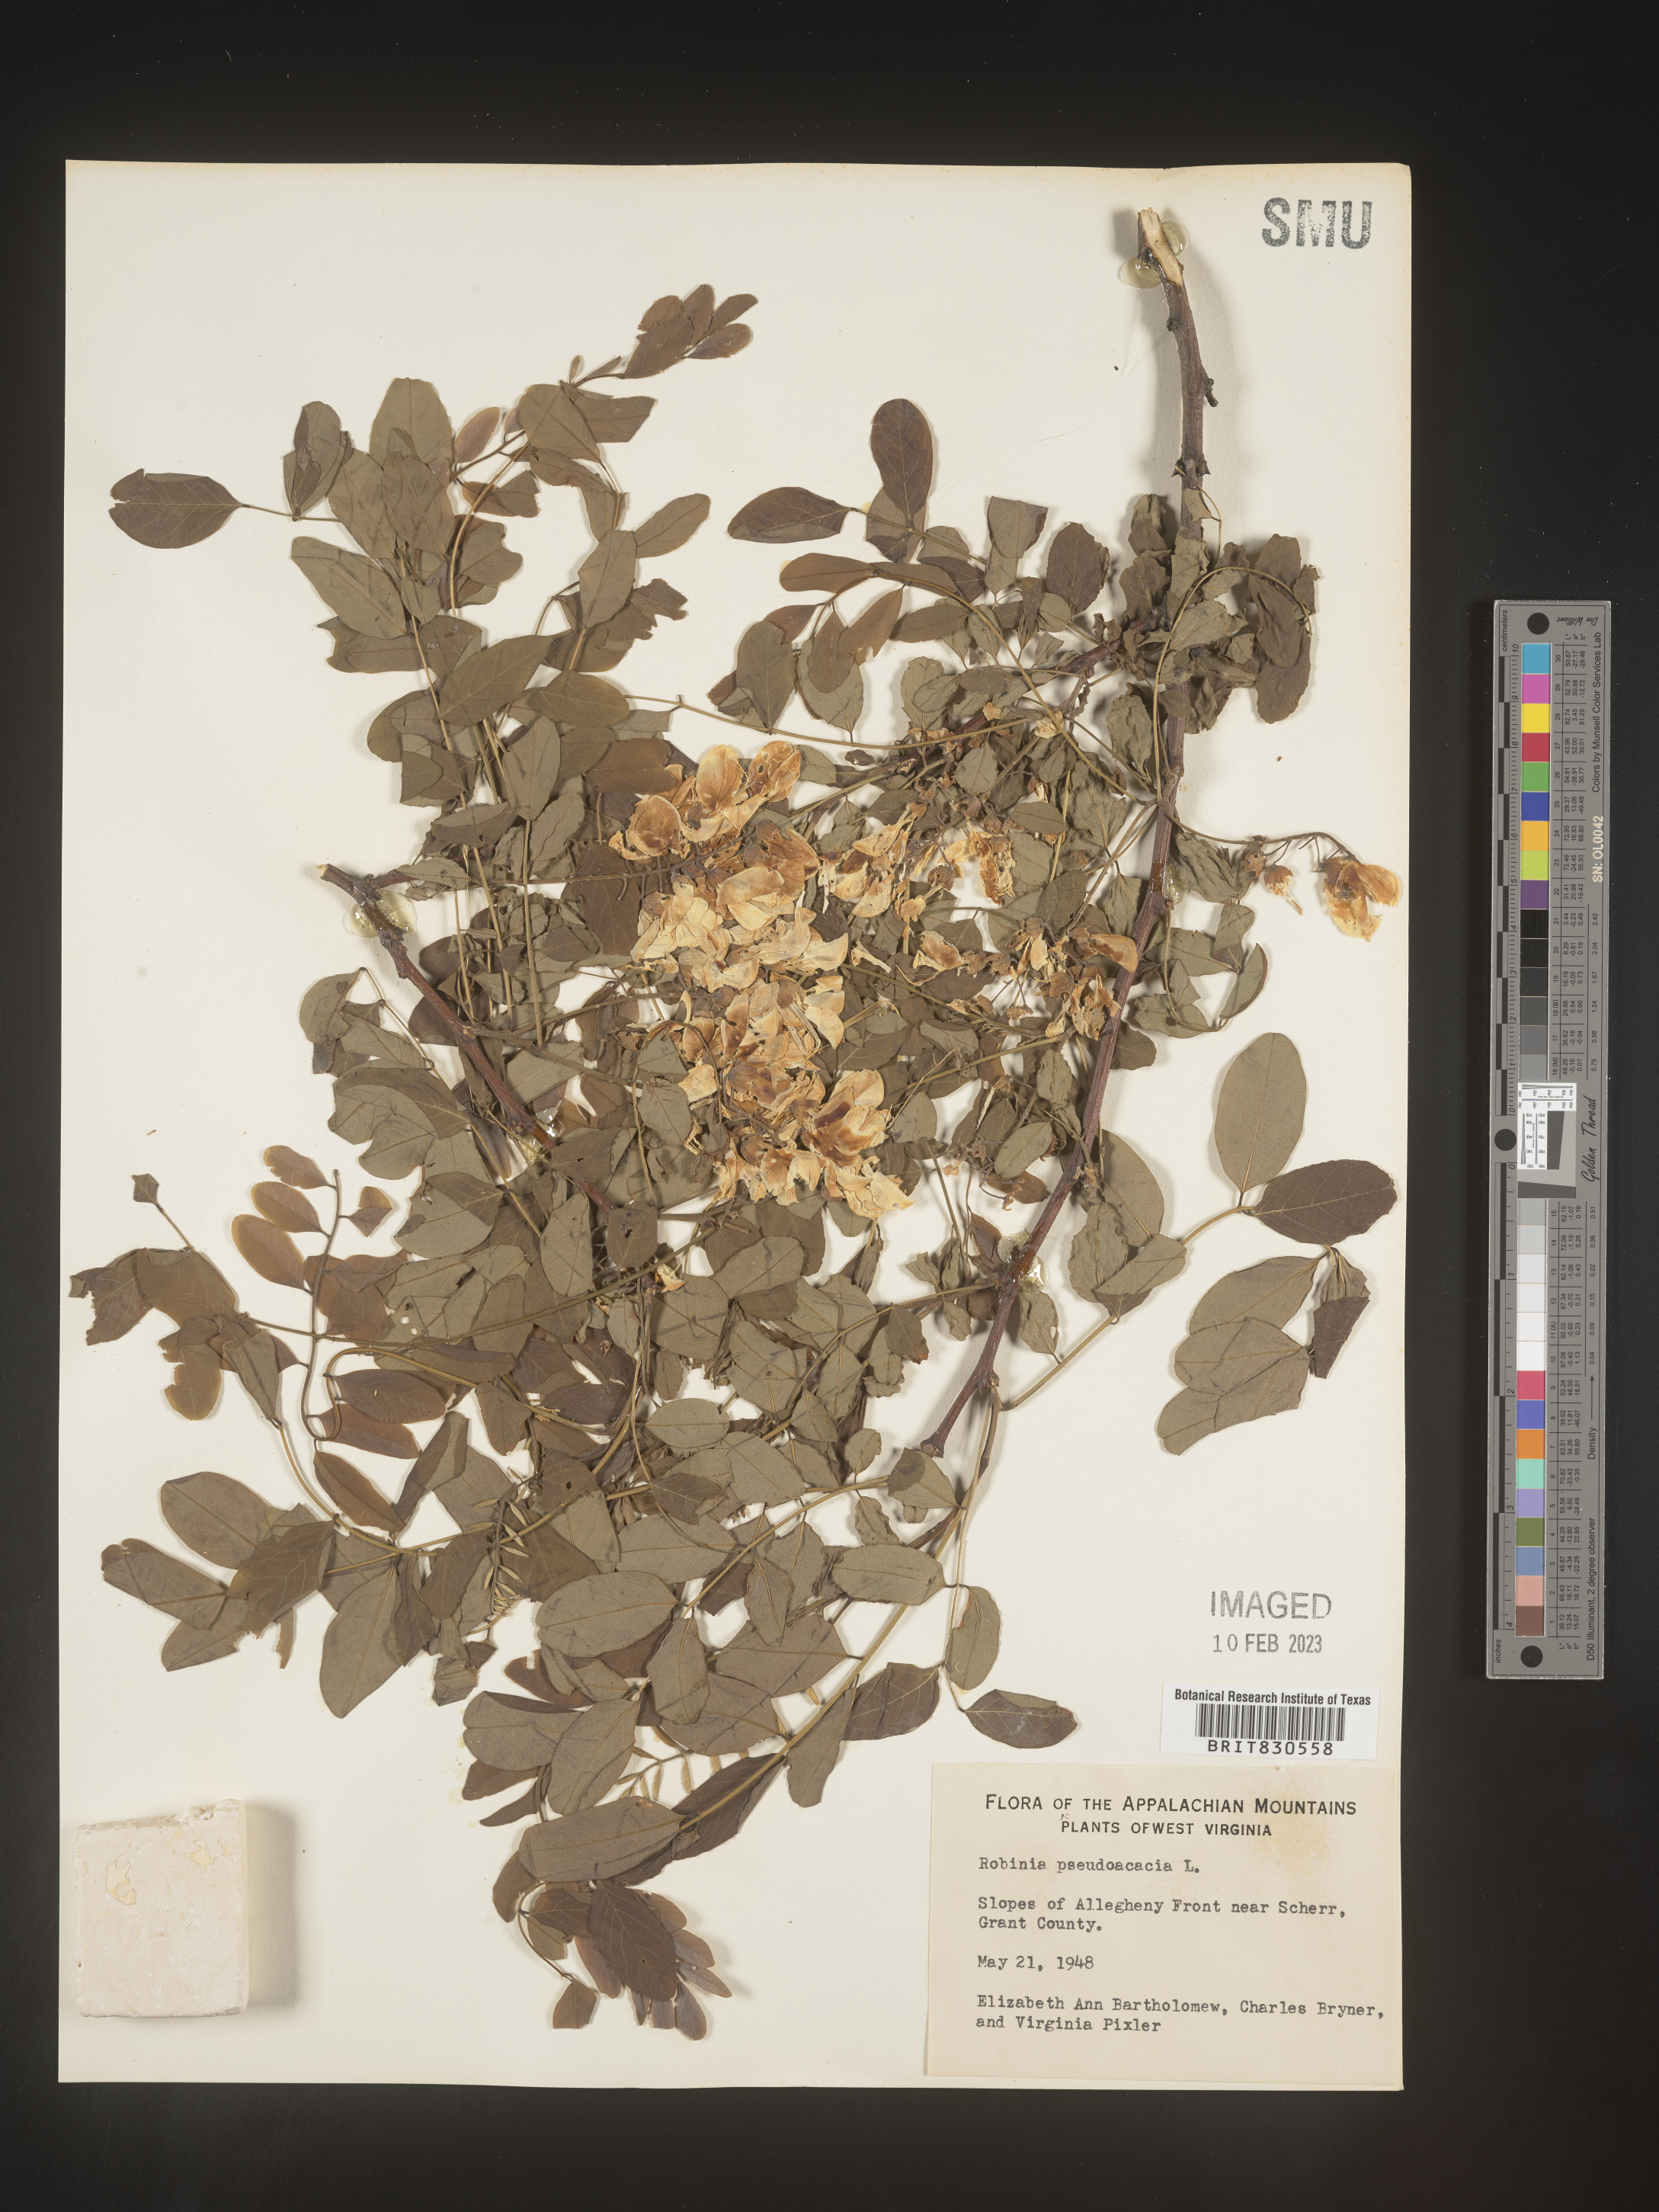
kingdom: Plantae
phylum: Tracheophyta
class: Magnoliopsida
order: Fabales
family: Fabaceae
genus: Robinia
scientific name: Robinia pseudoacacia
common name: Black locust
